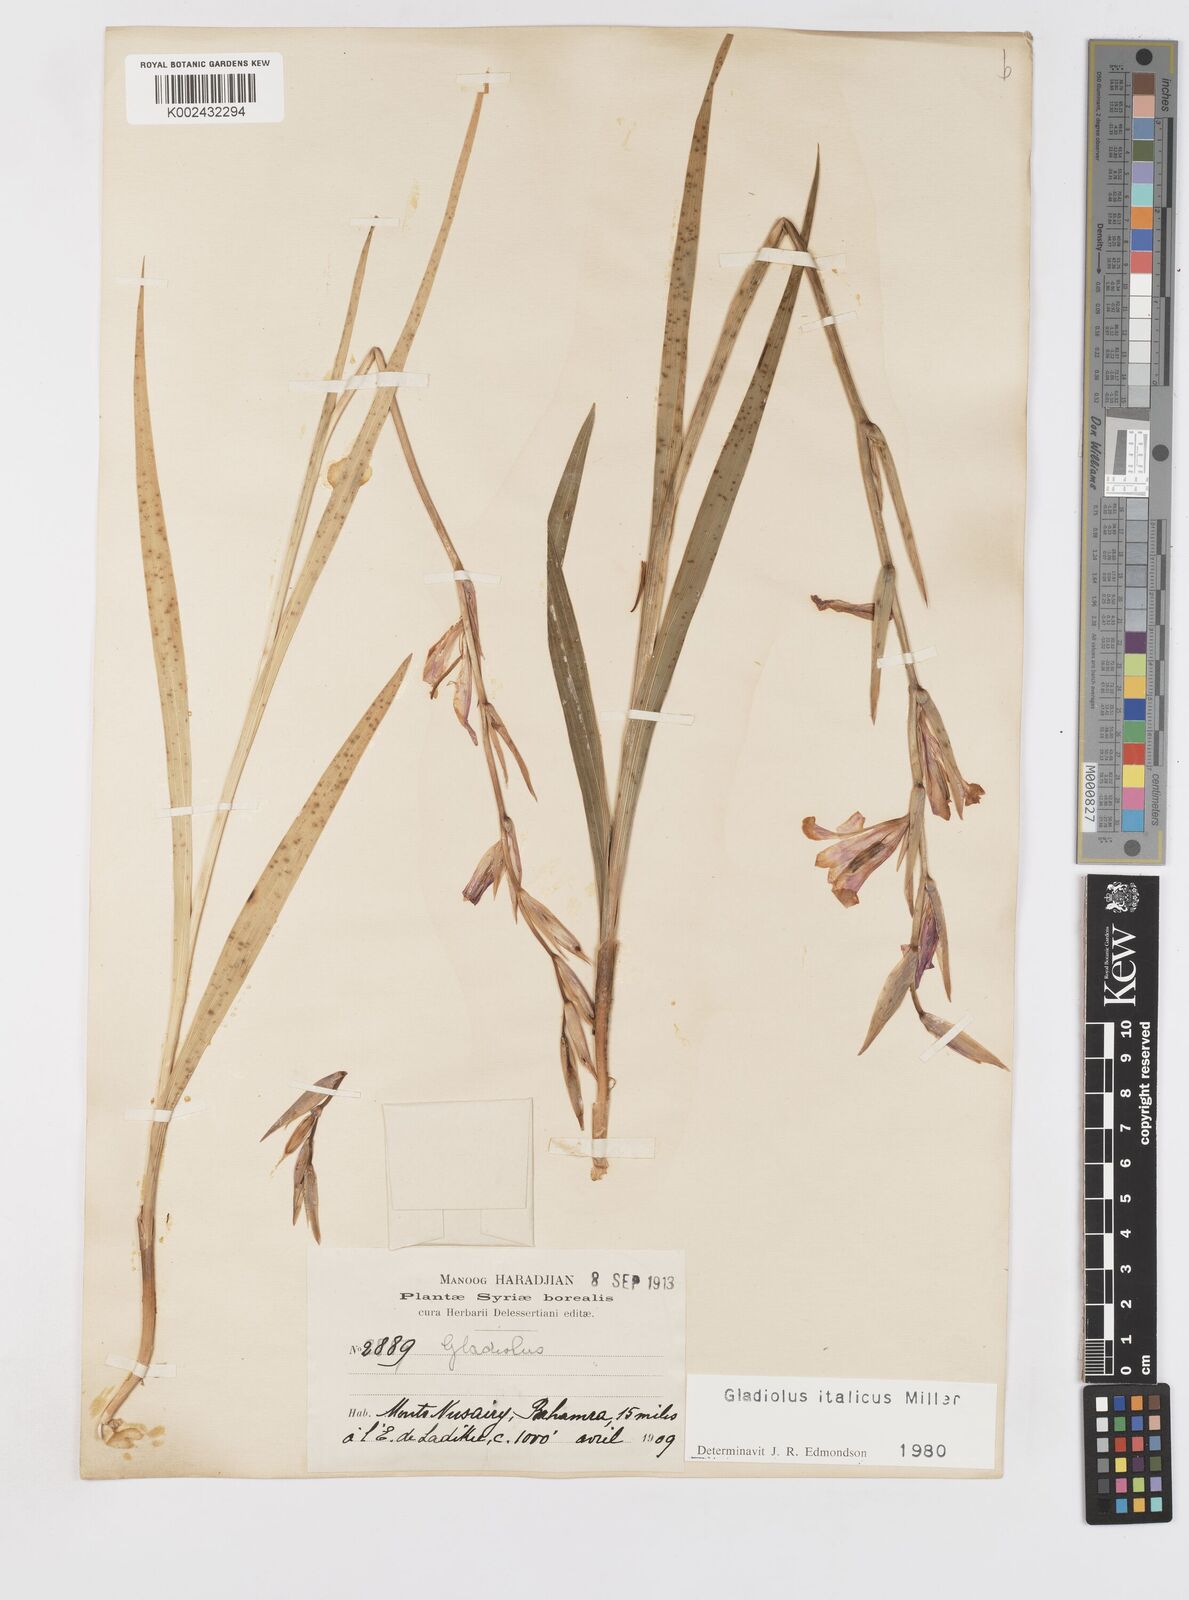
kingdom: Plantae
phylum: Tracheophyta
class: Liliopsida
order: Asparagales
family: Iridaceae
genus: Gladiolus
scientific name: Gladiolus italicus
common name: Field gladiolus
